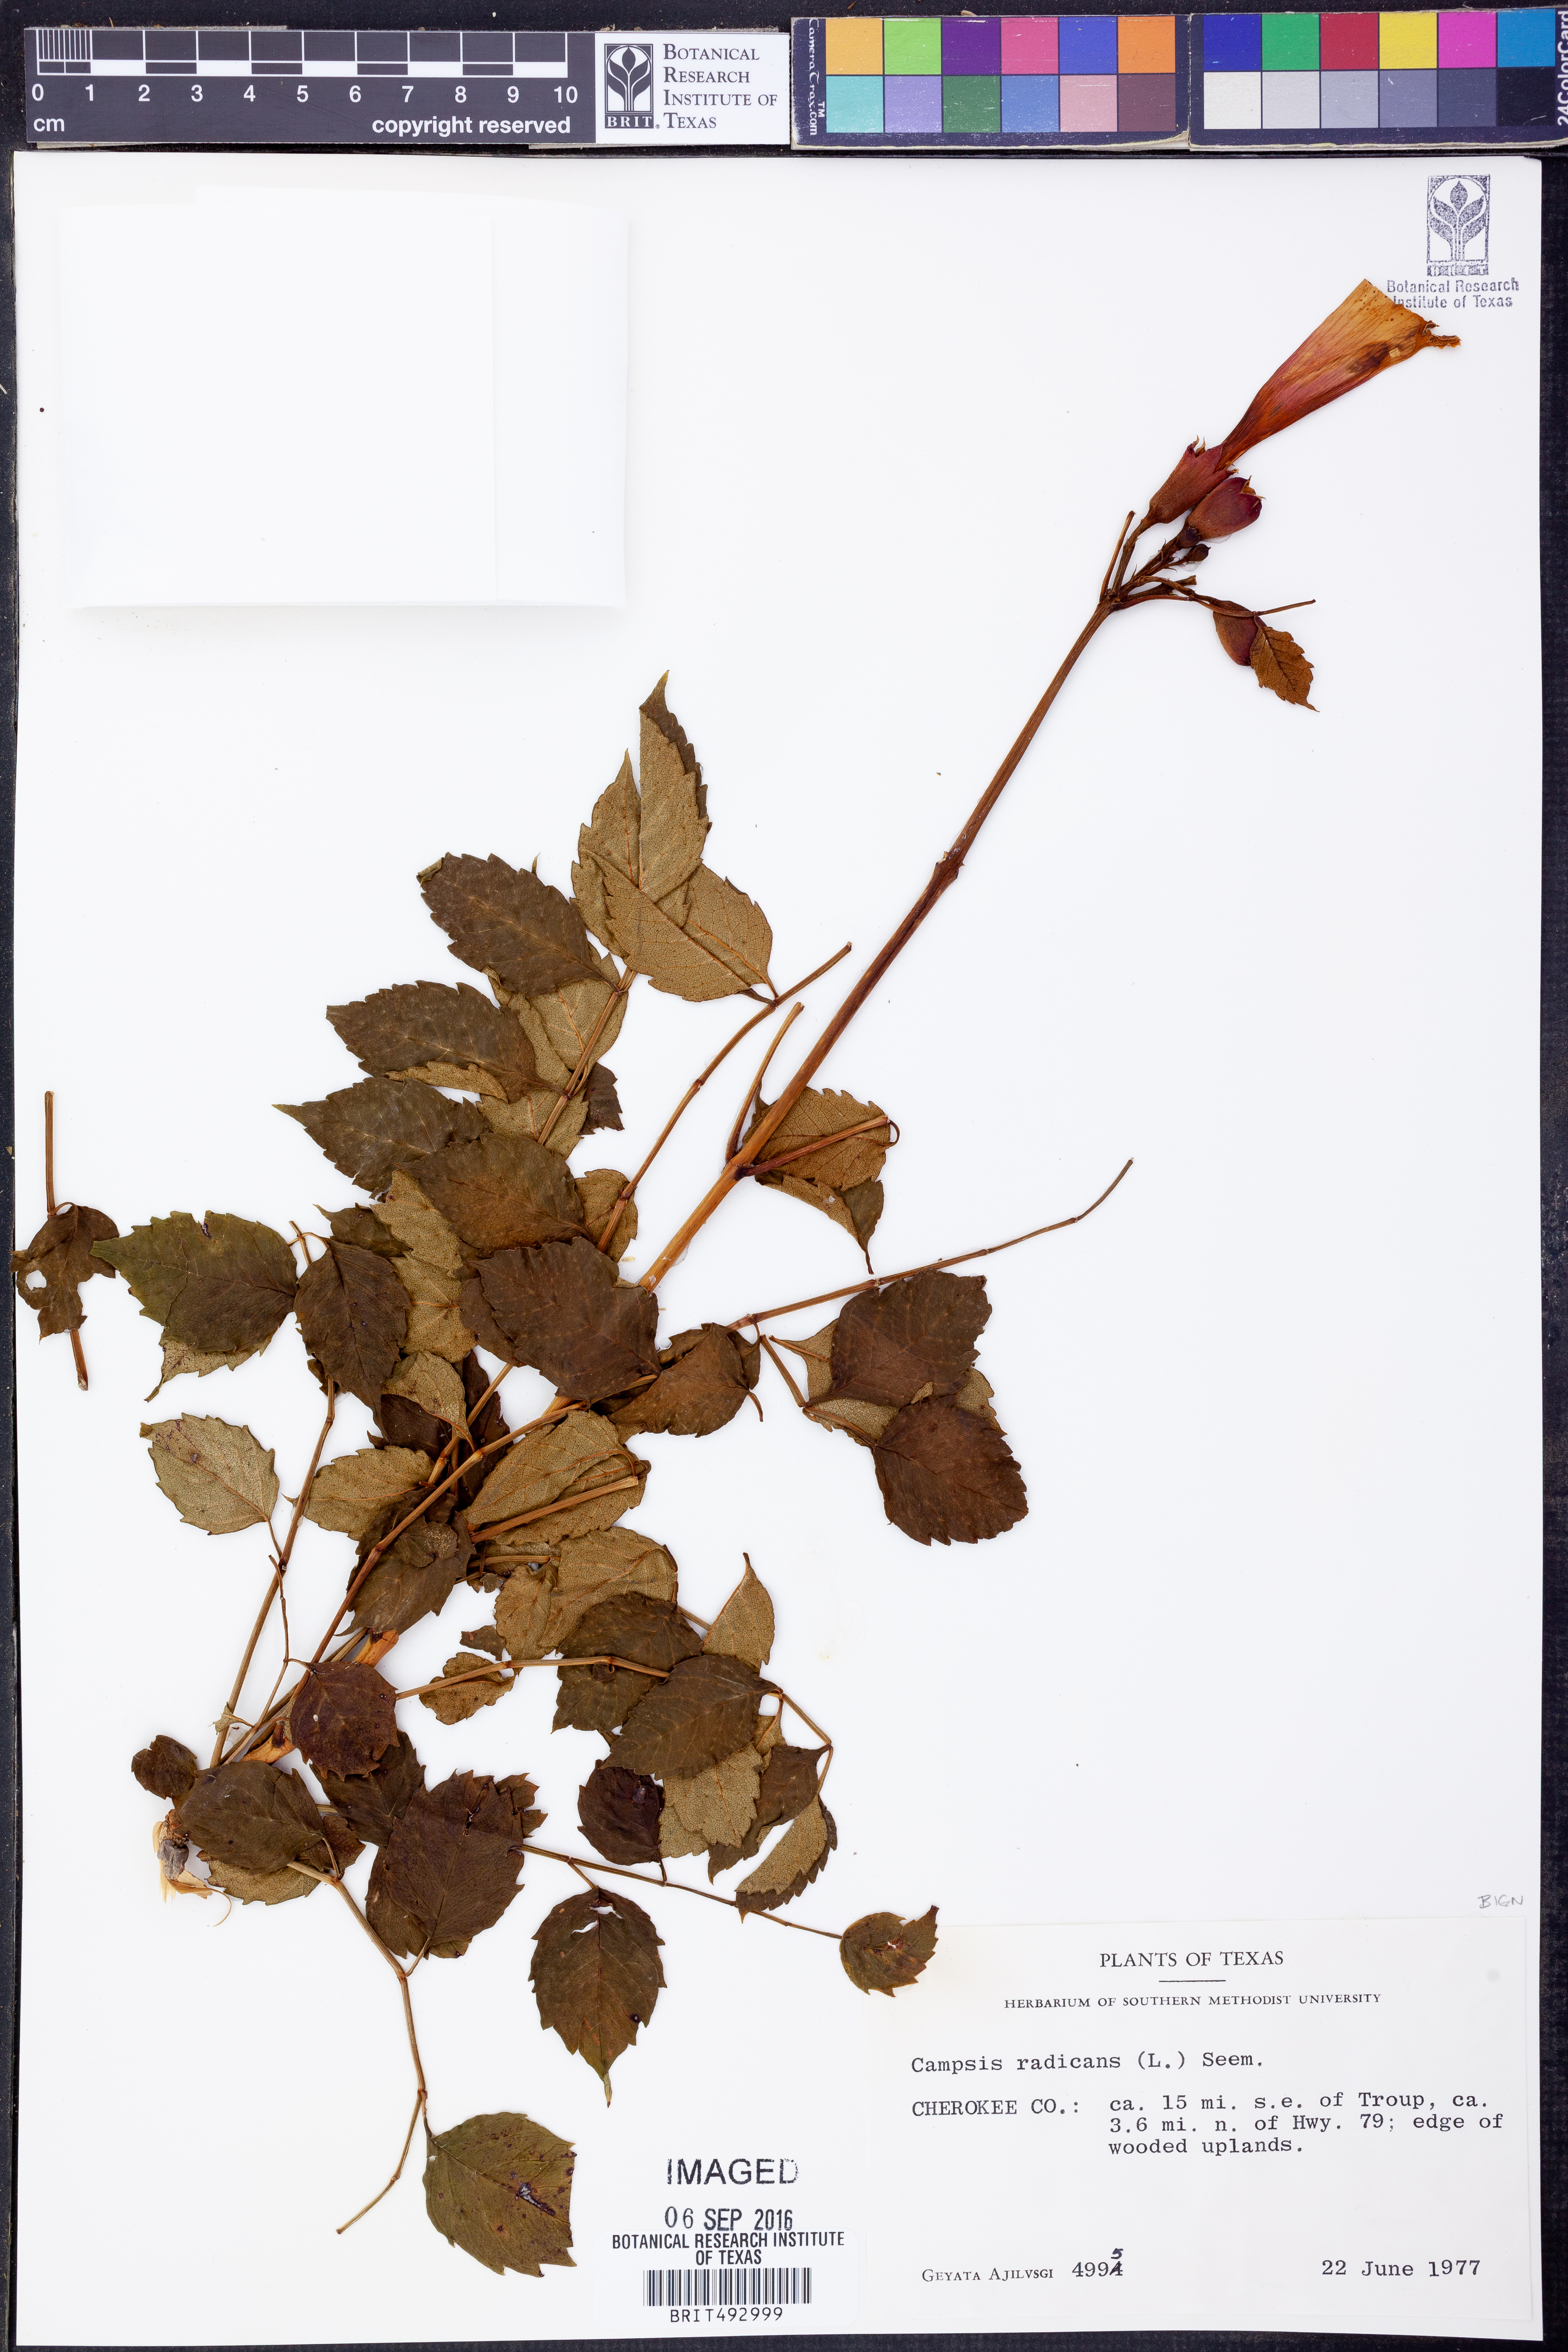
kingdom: Plantae
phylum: Tracheophyta
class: Magnoliopsida
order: Lamiales
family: Bignoniaceae
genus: Campsis
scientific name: Campsis radicans
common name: Trumpet-creeper
